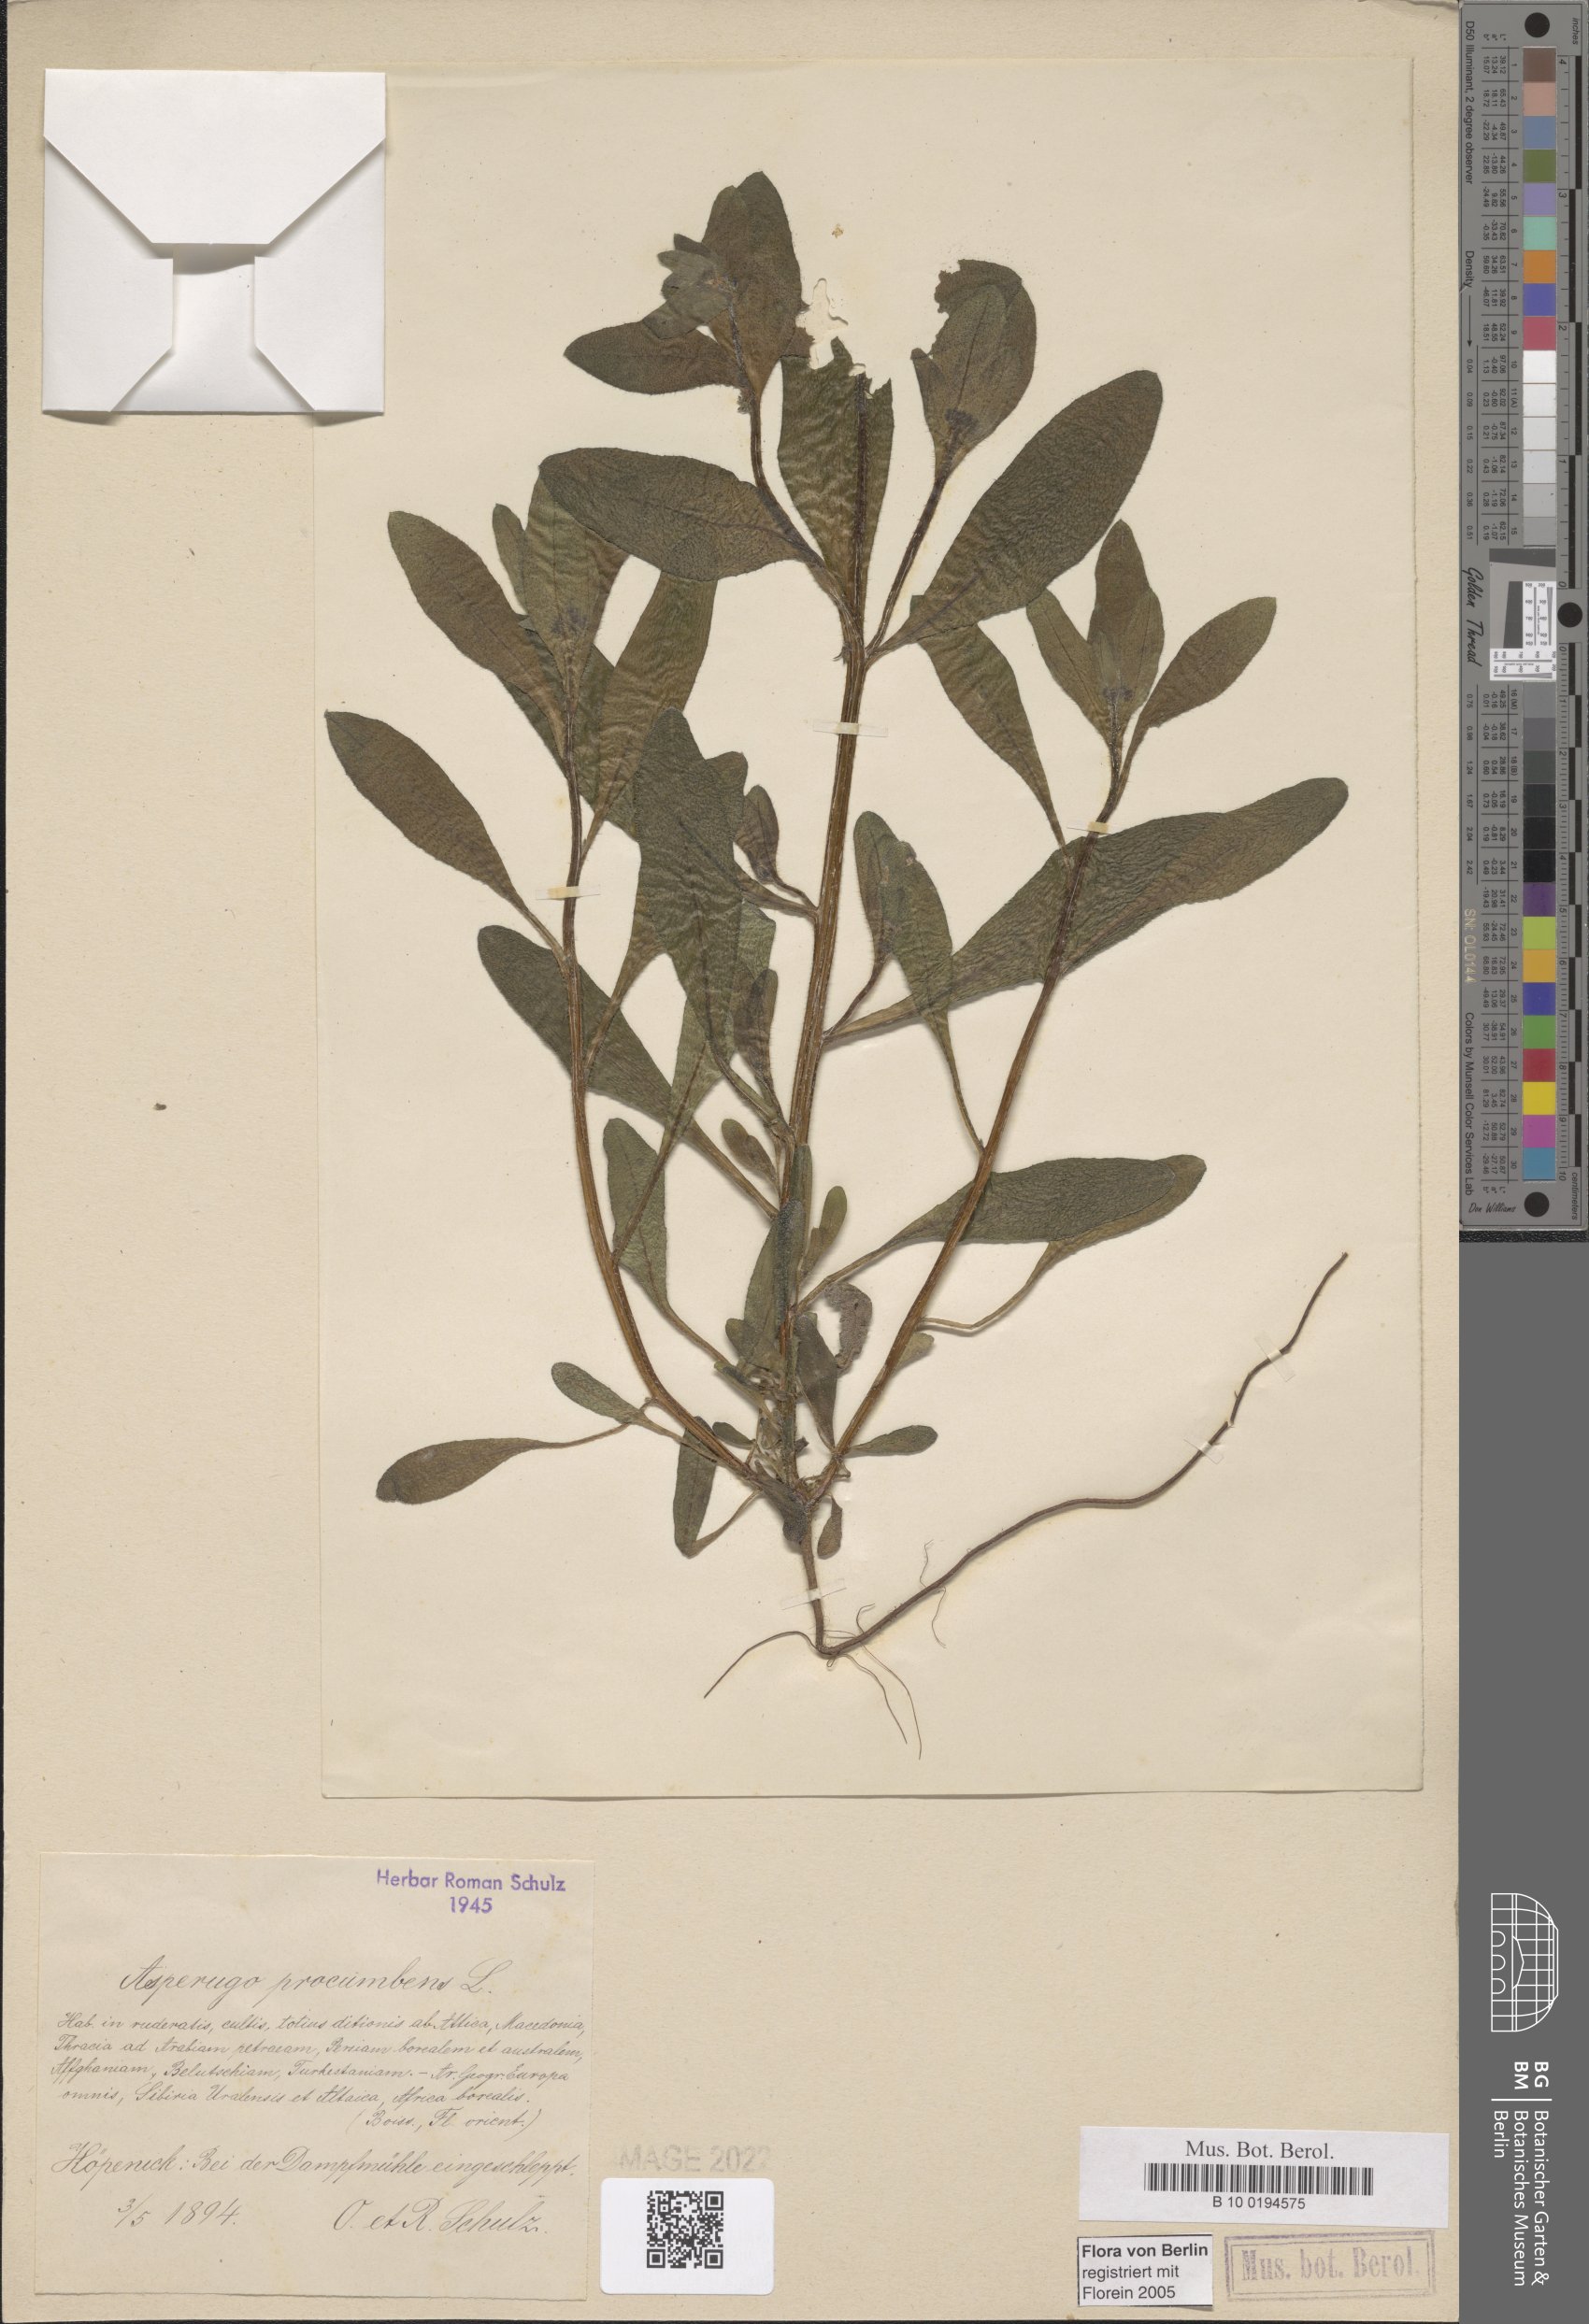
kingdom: Plantae
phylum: Tracheophyta
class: Magnoliopsida
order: Boraginales
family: Boraginaceae
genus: Asperugo
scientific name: Asperugo procumbens
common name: Madwort
